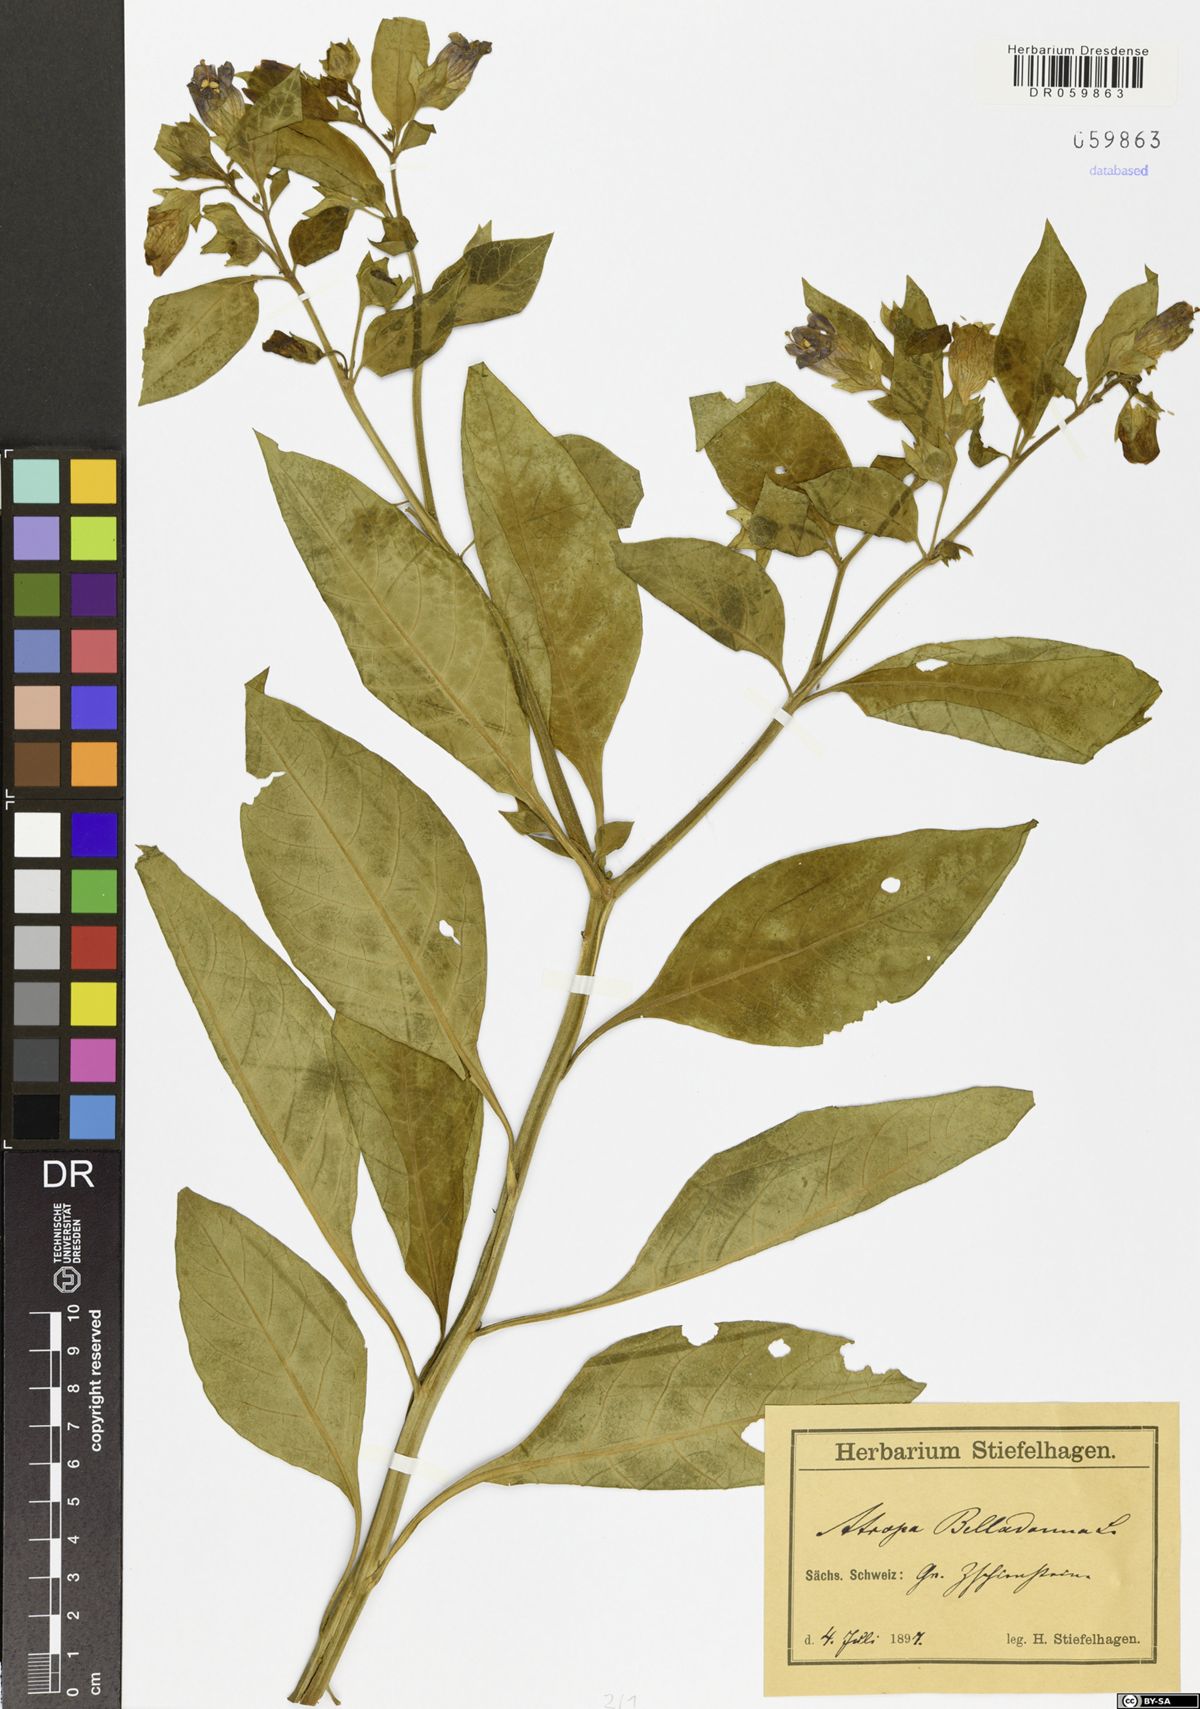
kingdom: Plantae
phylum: Tracheophyta
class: Magnoliopsida
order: Solanales
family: Solanaceae
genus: Atropa
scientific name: Atropa belladonna
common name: Deadly nightshade
